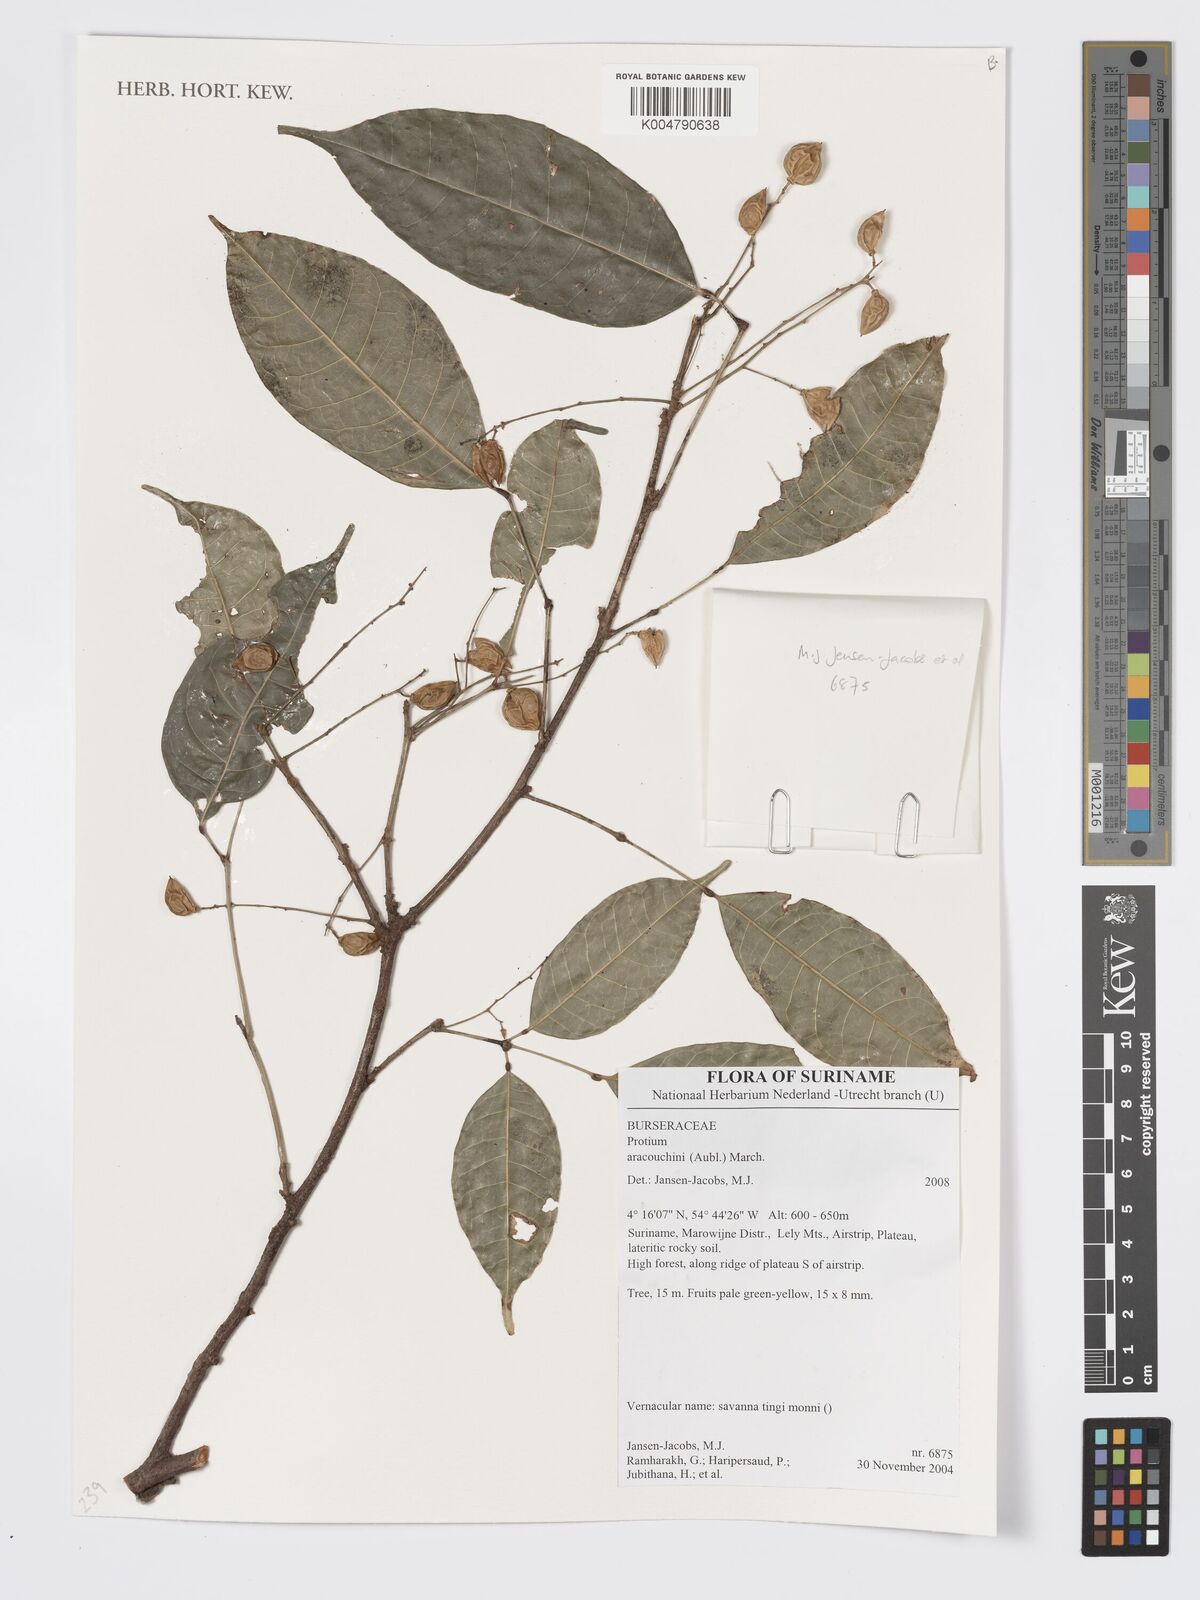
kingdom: Plantae
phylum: Tracheophyta
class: Magnoliopsida
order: Sapindales
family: Burseraceae
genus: Protium
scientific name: Protium aracouchini
